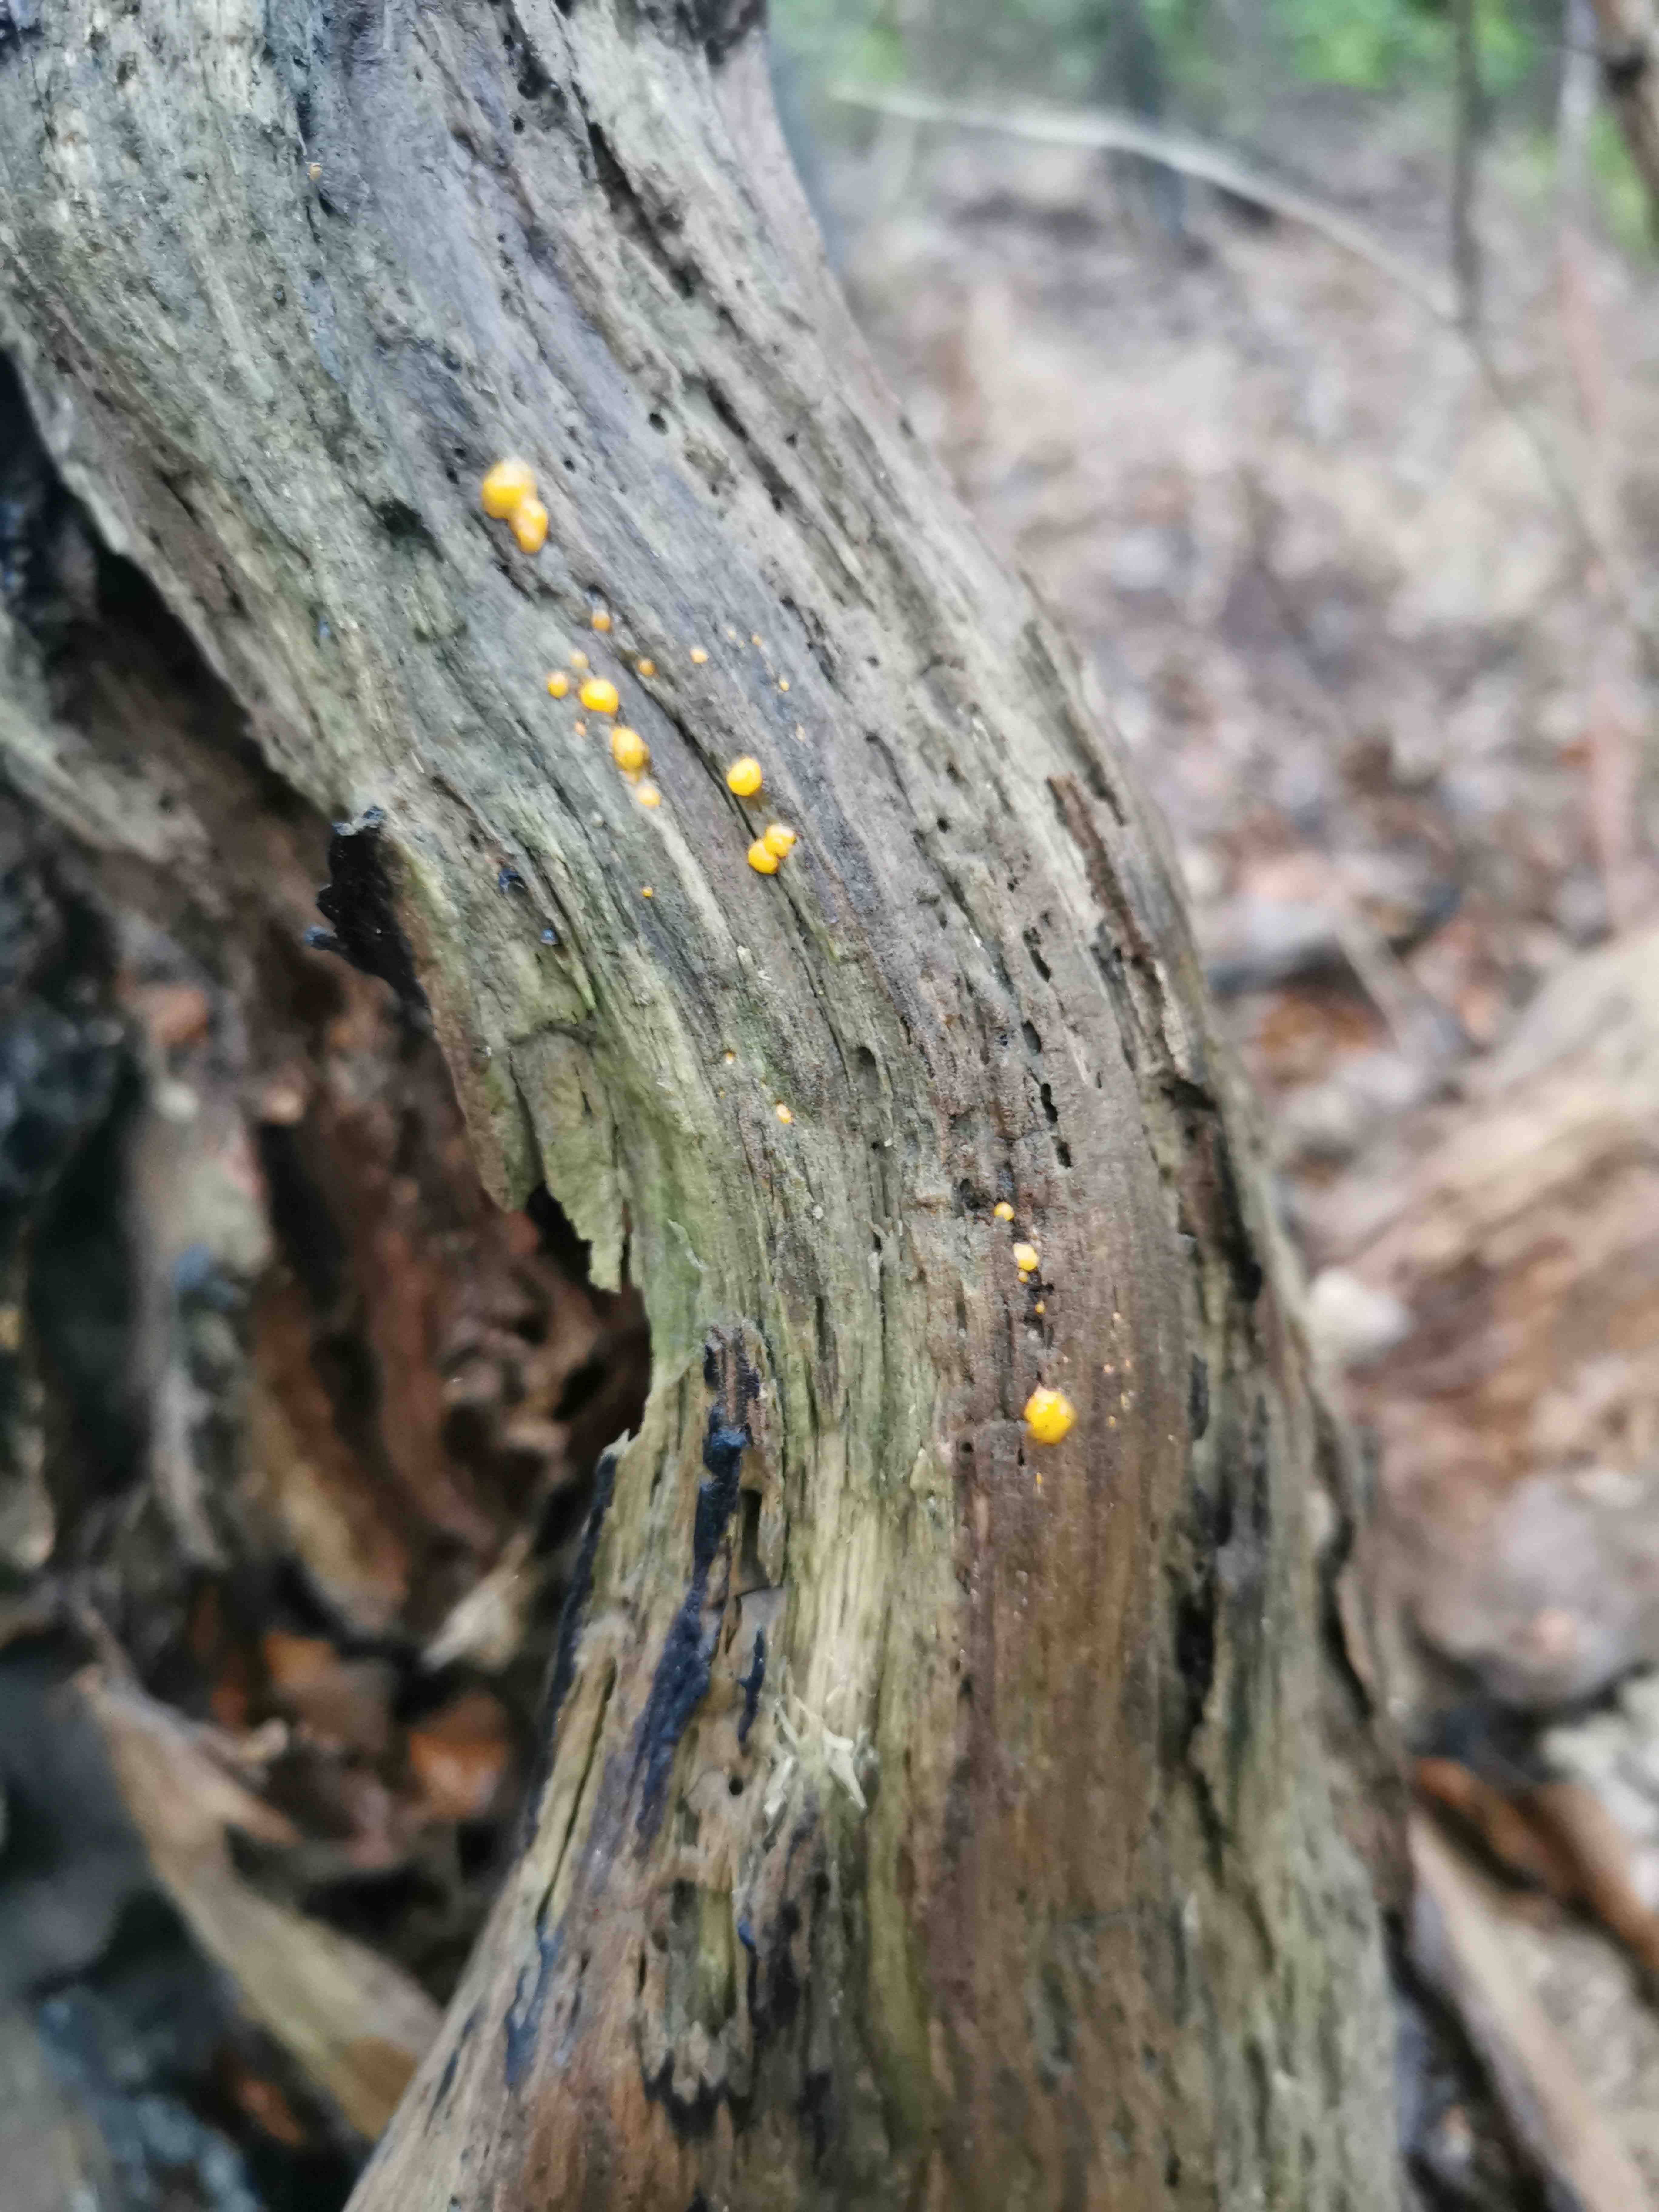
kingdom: Fungi
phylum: Basidiomycota
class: Dacrymycetes
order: Dacrymycetales
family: Dacrymycetaceae
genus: Dacrymyces
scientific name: Dacrymyces
